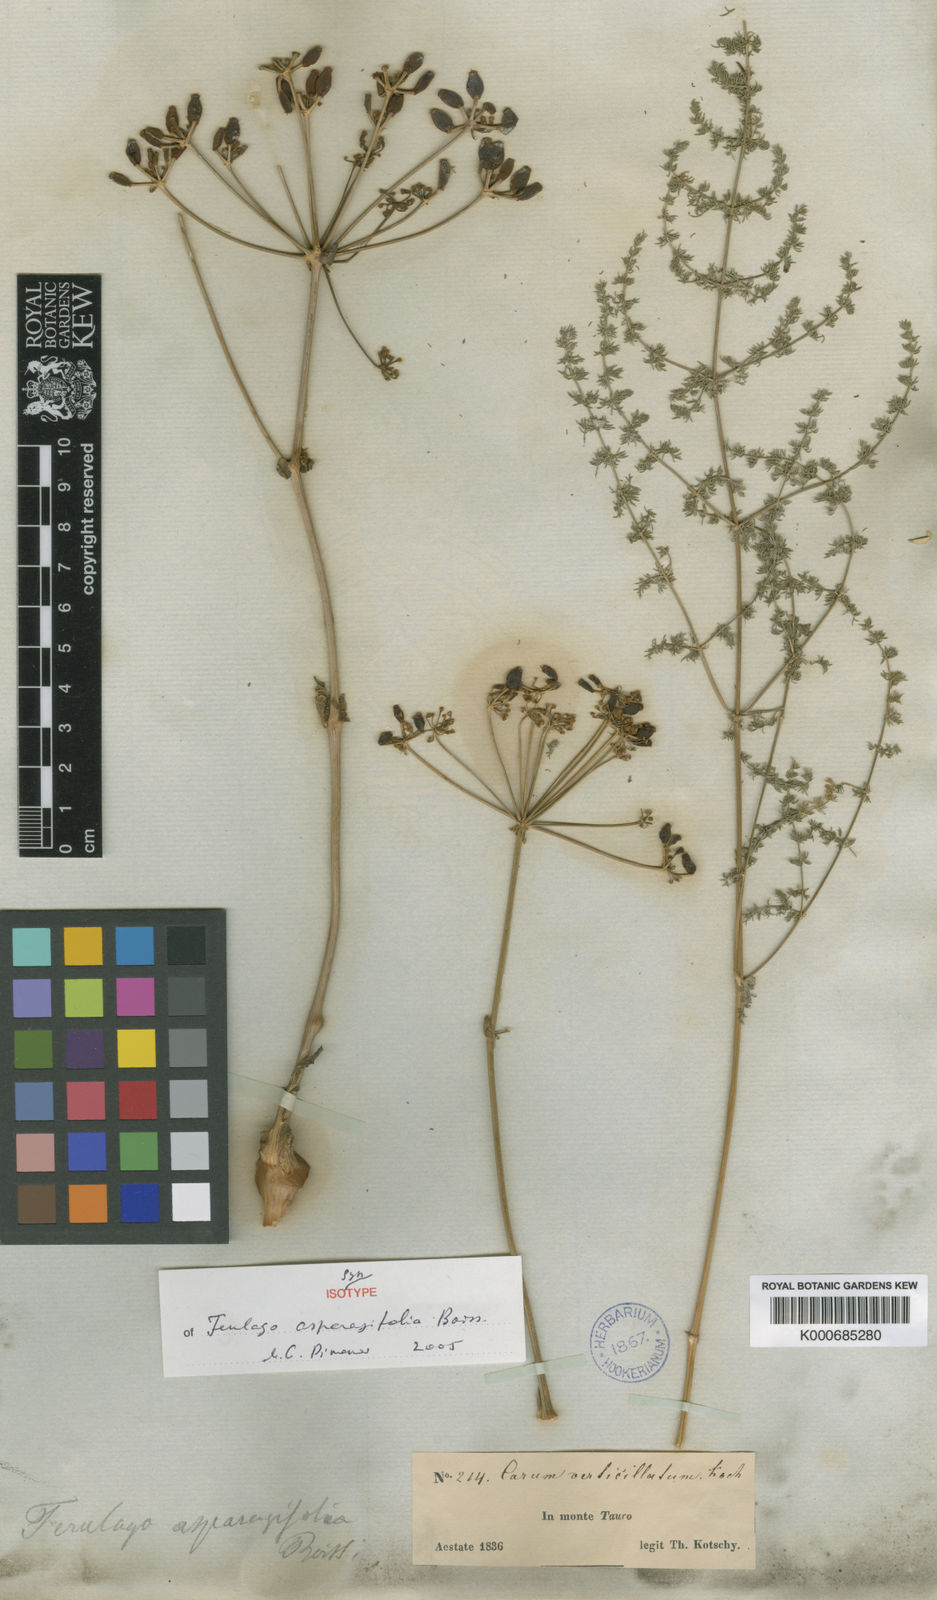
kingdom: Plantae
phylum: Tracheophyta
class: Magnoliopsida
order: Apiales
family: Apiaceae
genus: Ferulago
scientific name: Ferulago asparagifolia
